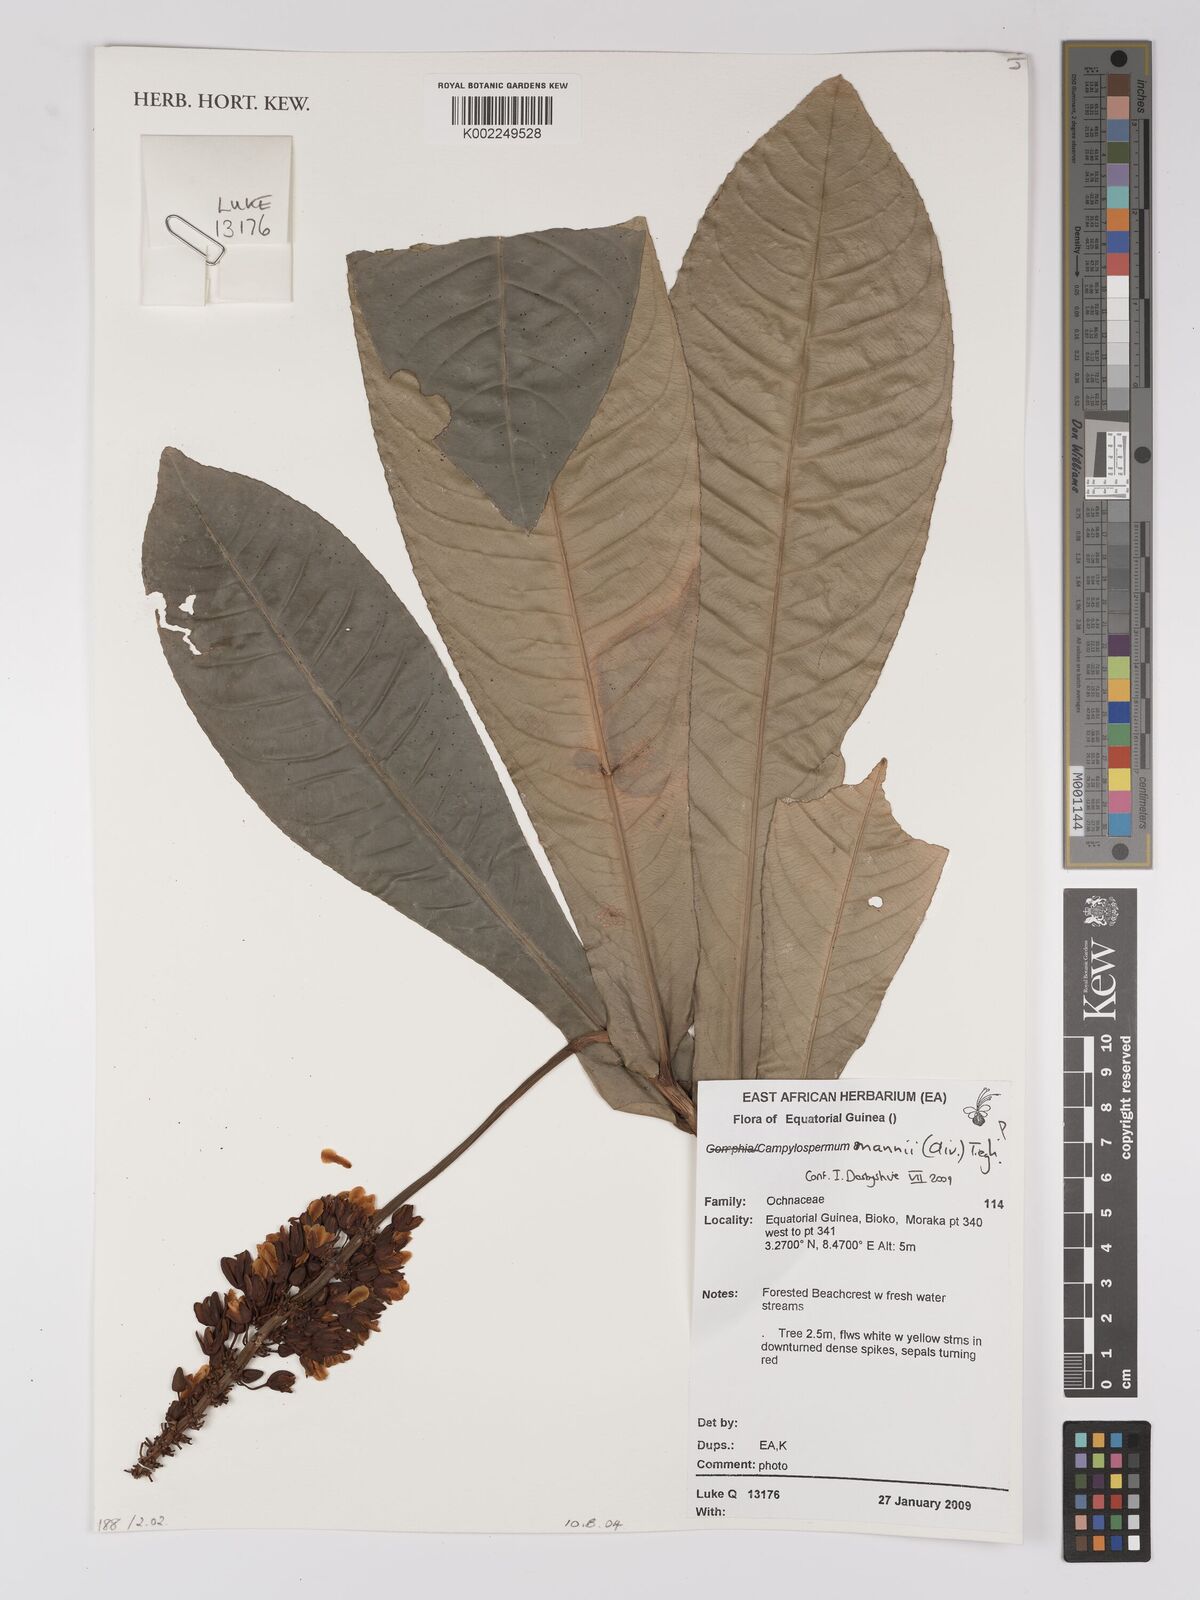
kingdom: Plantae
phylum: Tracheophyta
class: Magnoliopsida
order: Malpighiales
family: Ochnaceae
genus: Campylospermum
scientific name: Campylospermum mannii
